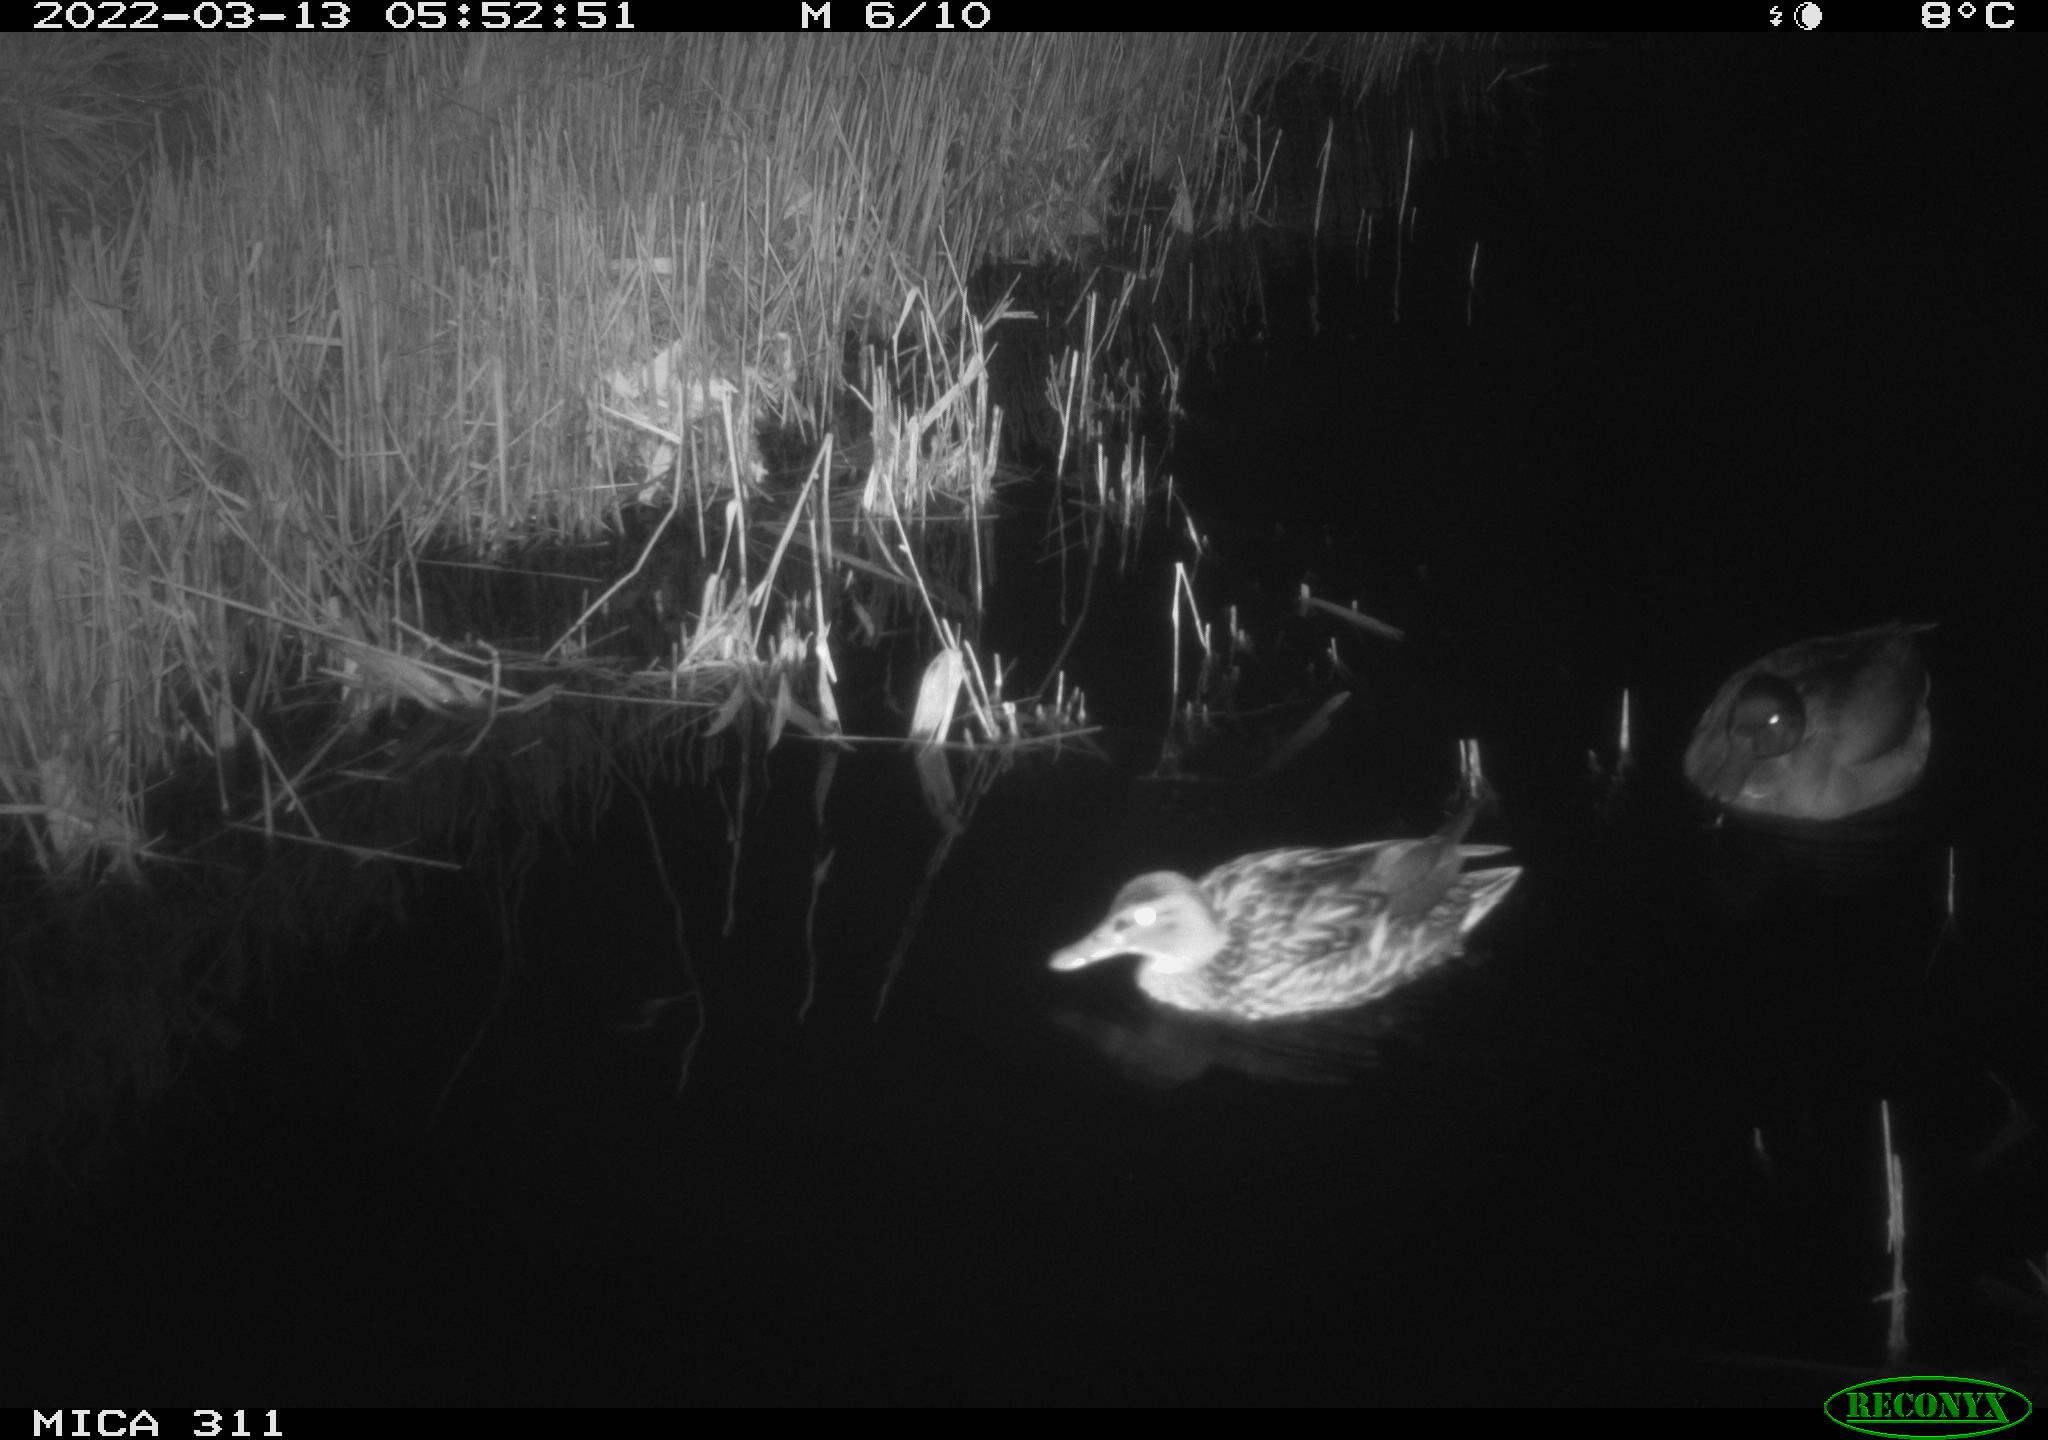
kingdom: Animalia
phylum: Chordata
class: Aves
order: Anseriformes
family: Anatidae
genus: Anas
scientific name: Anas
